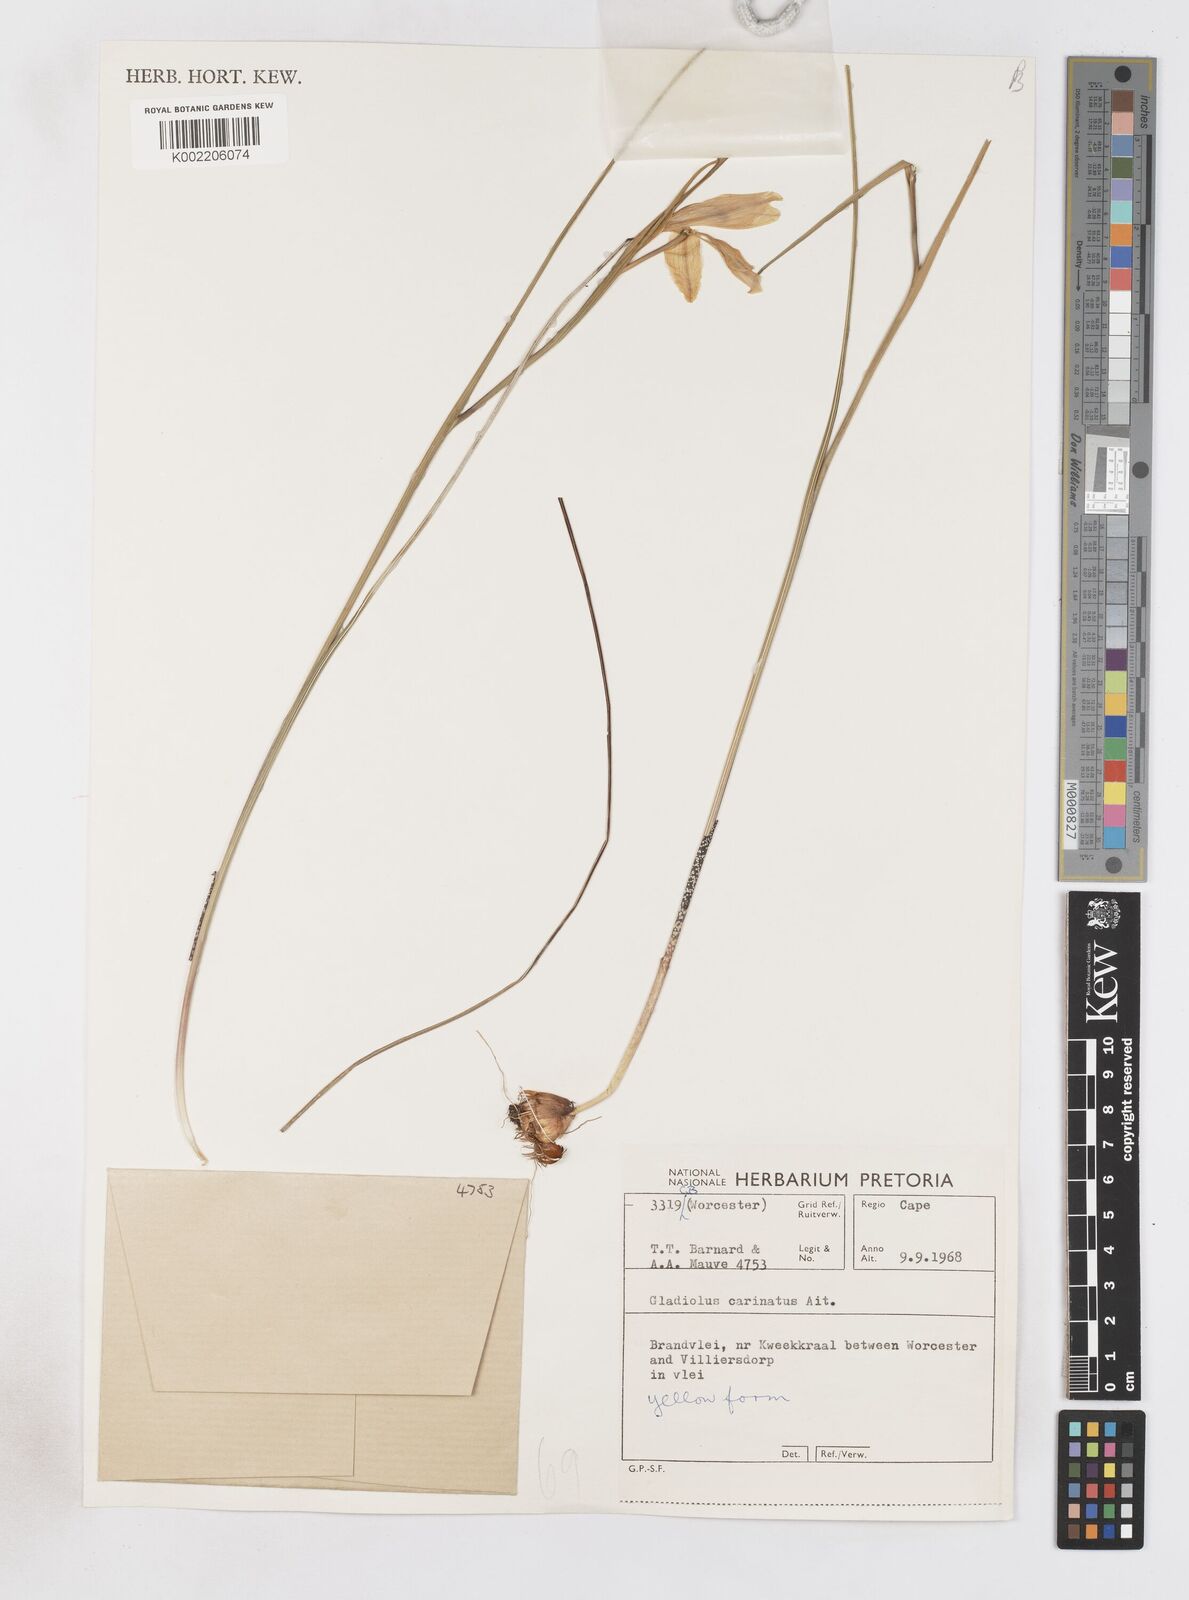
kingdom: Plantae
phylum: Tracheophyta
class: Liliopsida
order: Asparagales
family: Iridaceae
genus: Gladiolus
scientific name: Gladiolus carinatus
